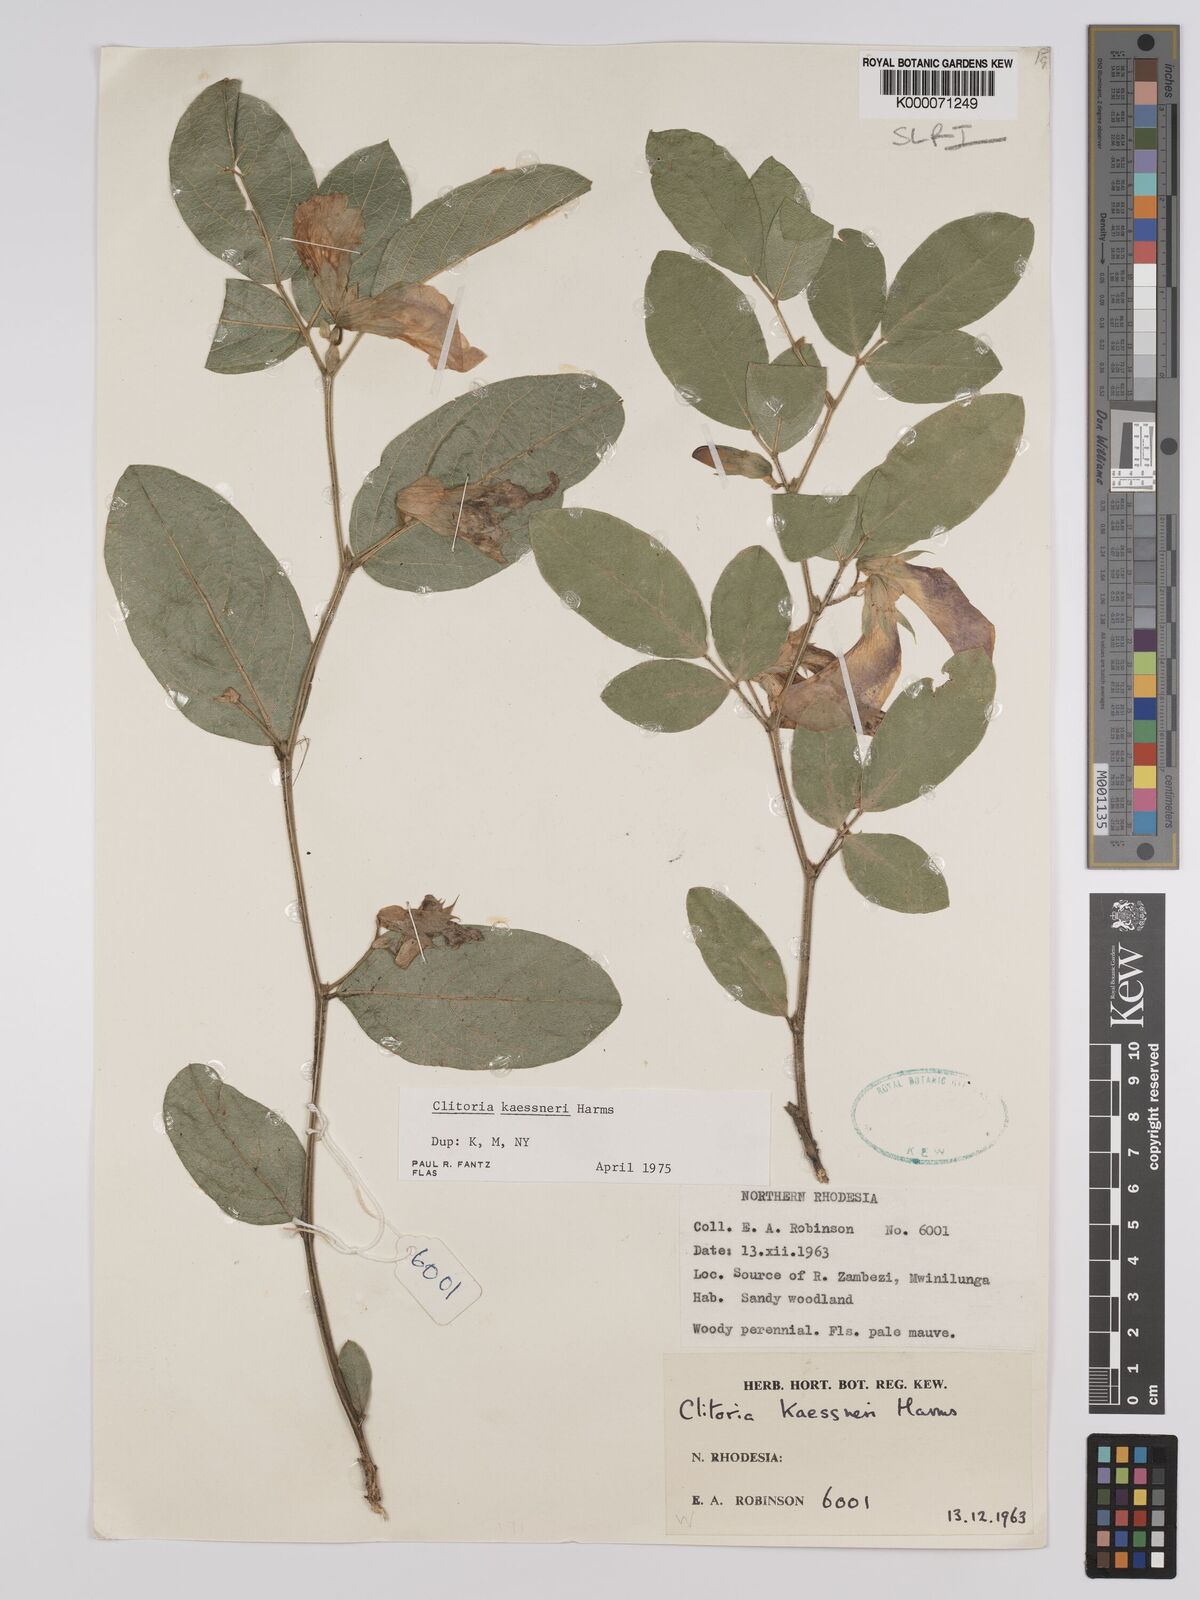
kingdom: Plantae
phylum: Tracheophyta
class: Magnoliopsida
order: Fabales
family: Fabaceae
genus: Clitoria
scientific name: Clitoria kaessneri
